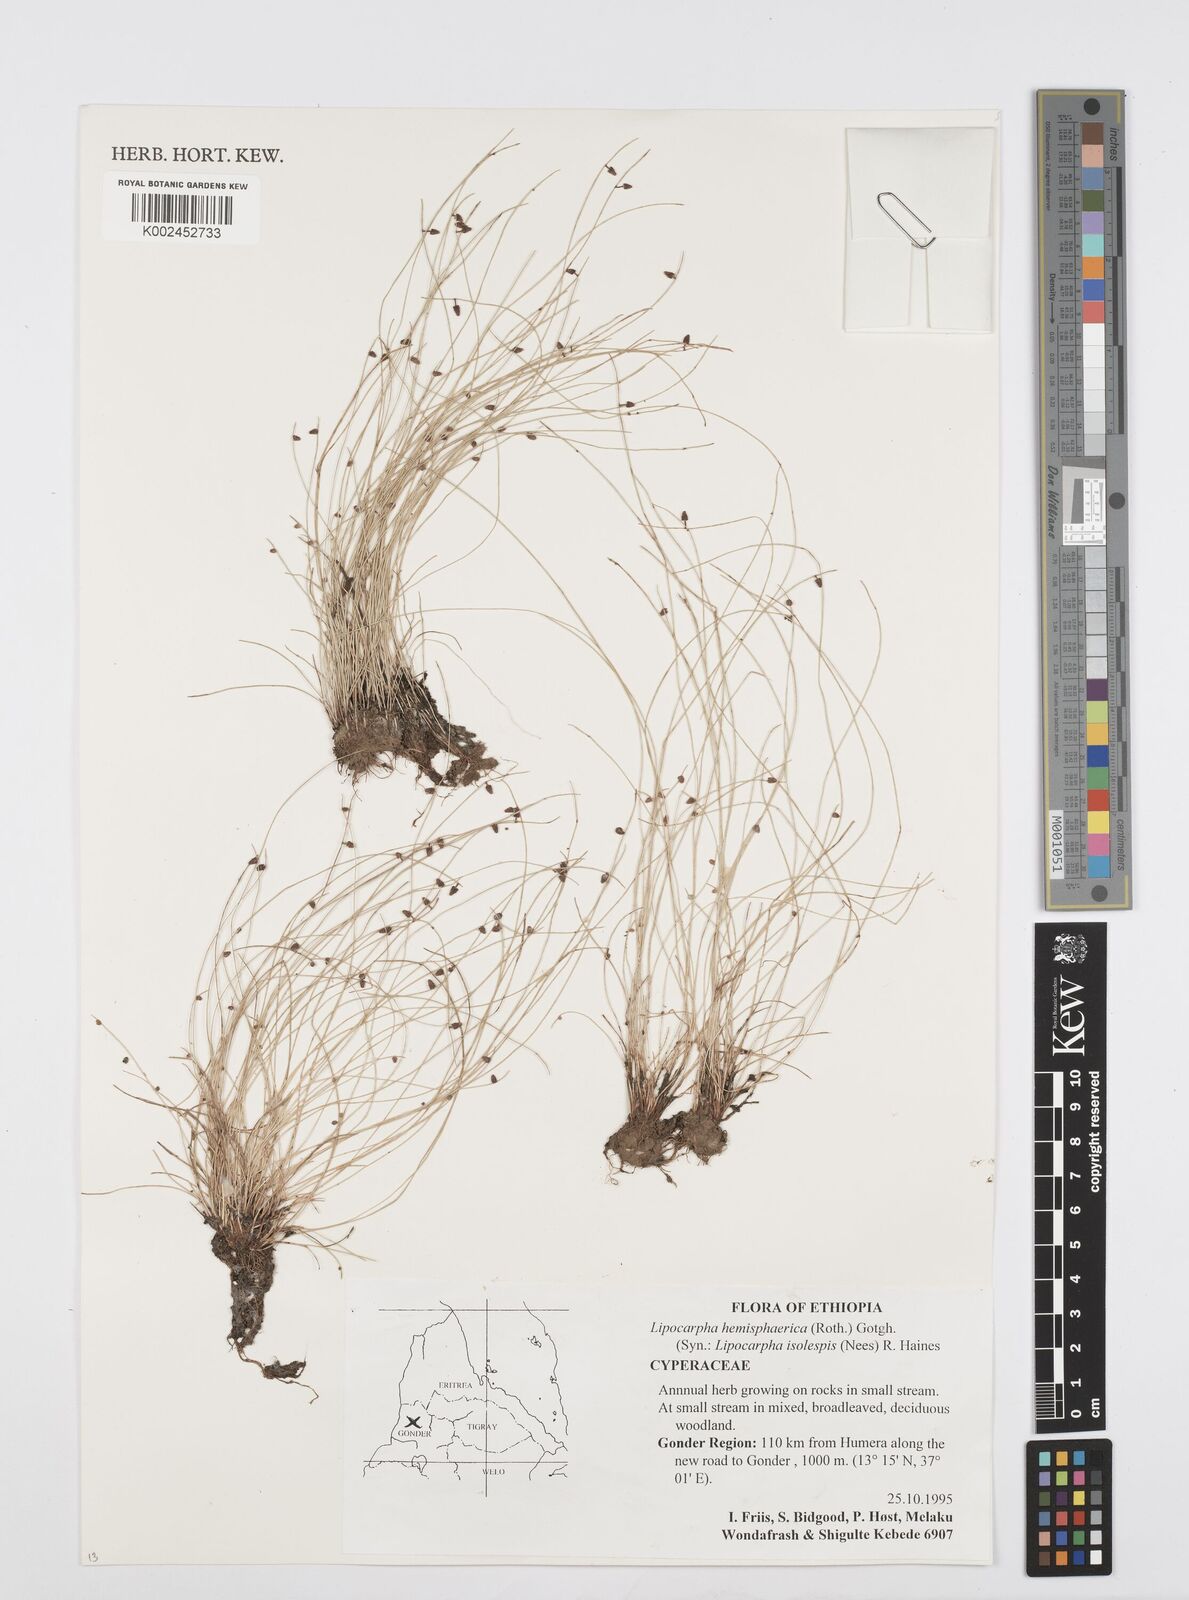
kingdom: Plantae
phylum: Tracheophyta
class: Liliopsida
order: Poales
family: Cyperaceae
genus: Cyperus
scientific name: Cyperus isolepis
